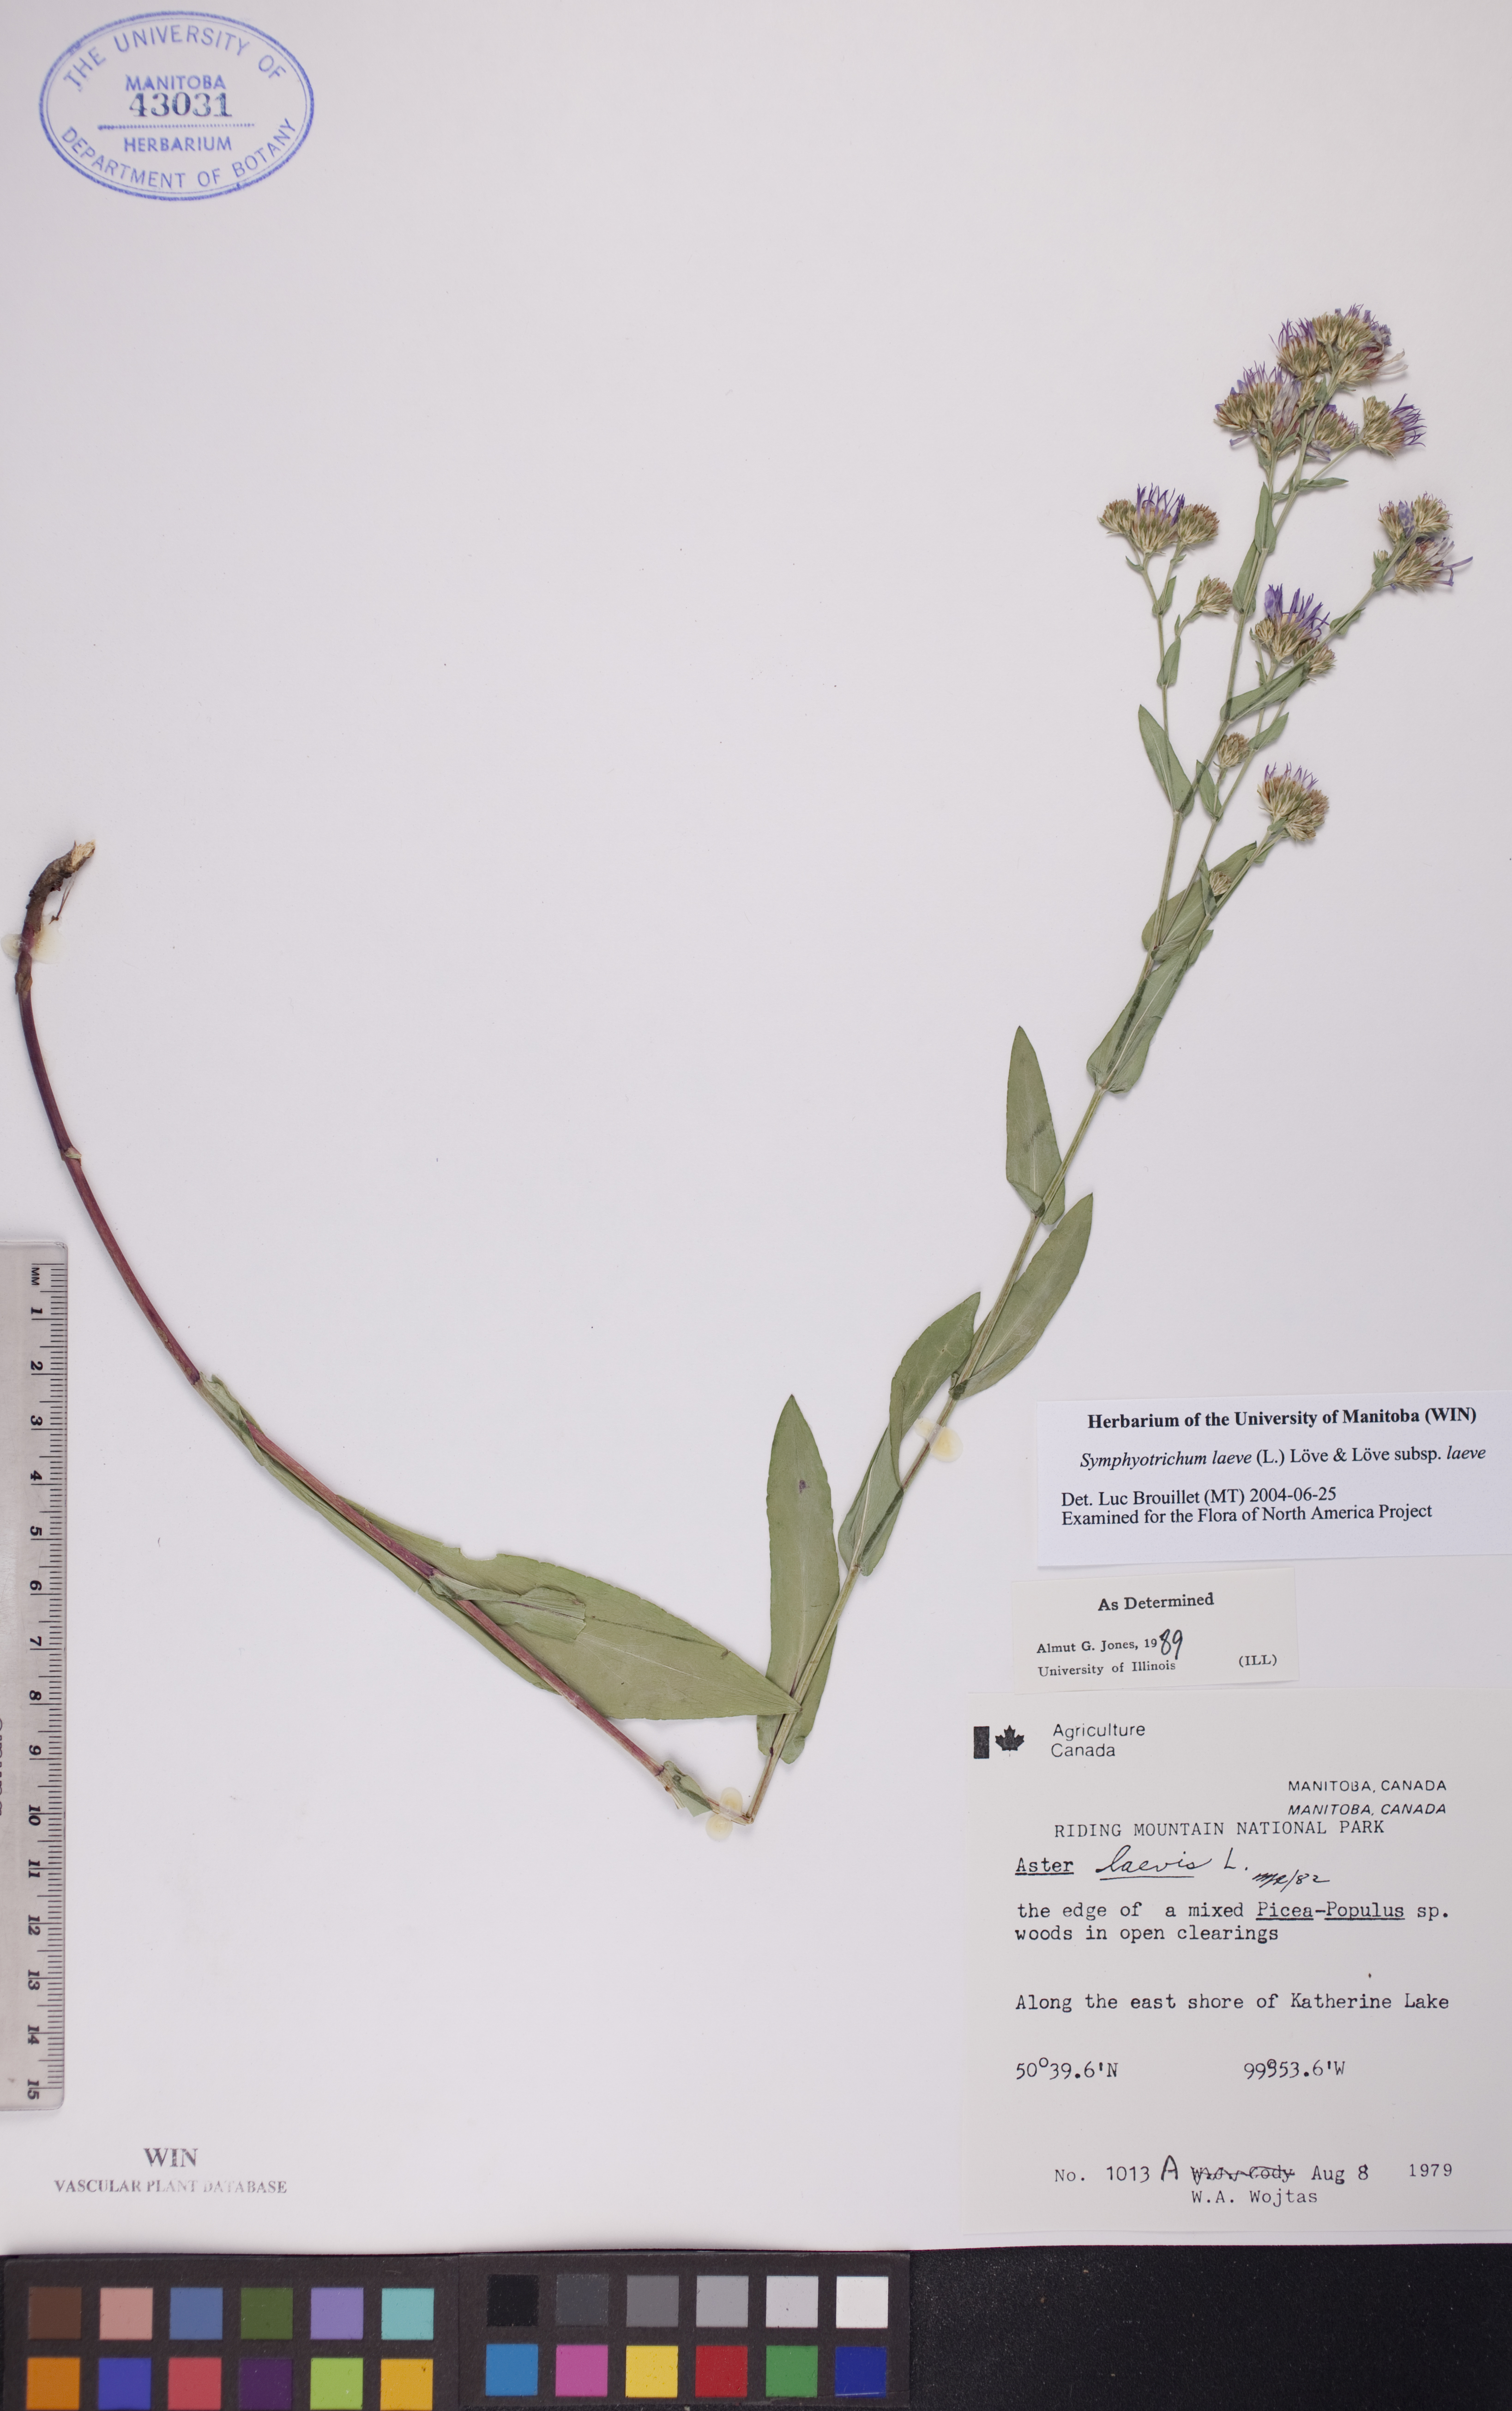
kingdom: Plantae
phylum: Tracheophyta
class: Magnoliopsida
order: Asterales
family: Asteraceae
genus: Symphyotrichum
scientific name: Symphyotrichum laeve
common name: Glaucous aster
